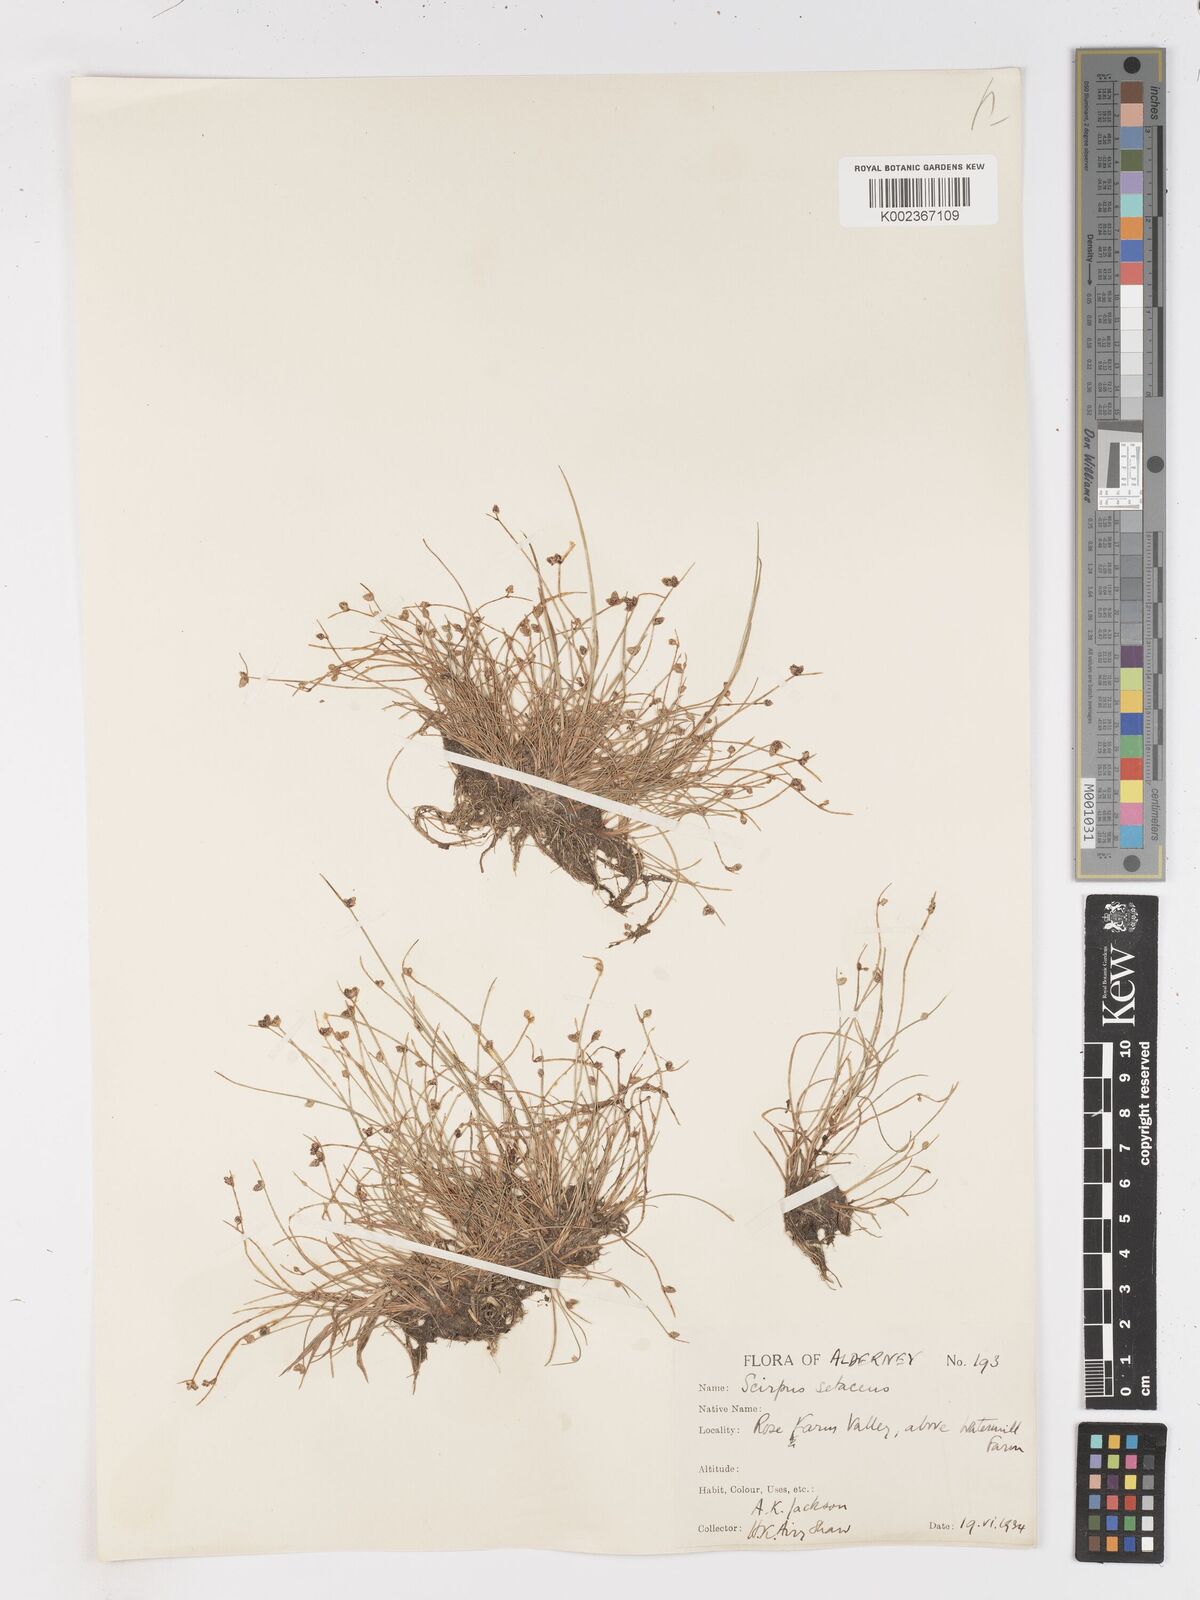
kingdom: Plantae
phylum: Tracheophyta
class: Liliopsida
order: Poales
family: Cyperaceae
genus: Isolepis
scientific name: Isolepis setacea
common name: Bristle club-rush
